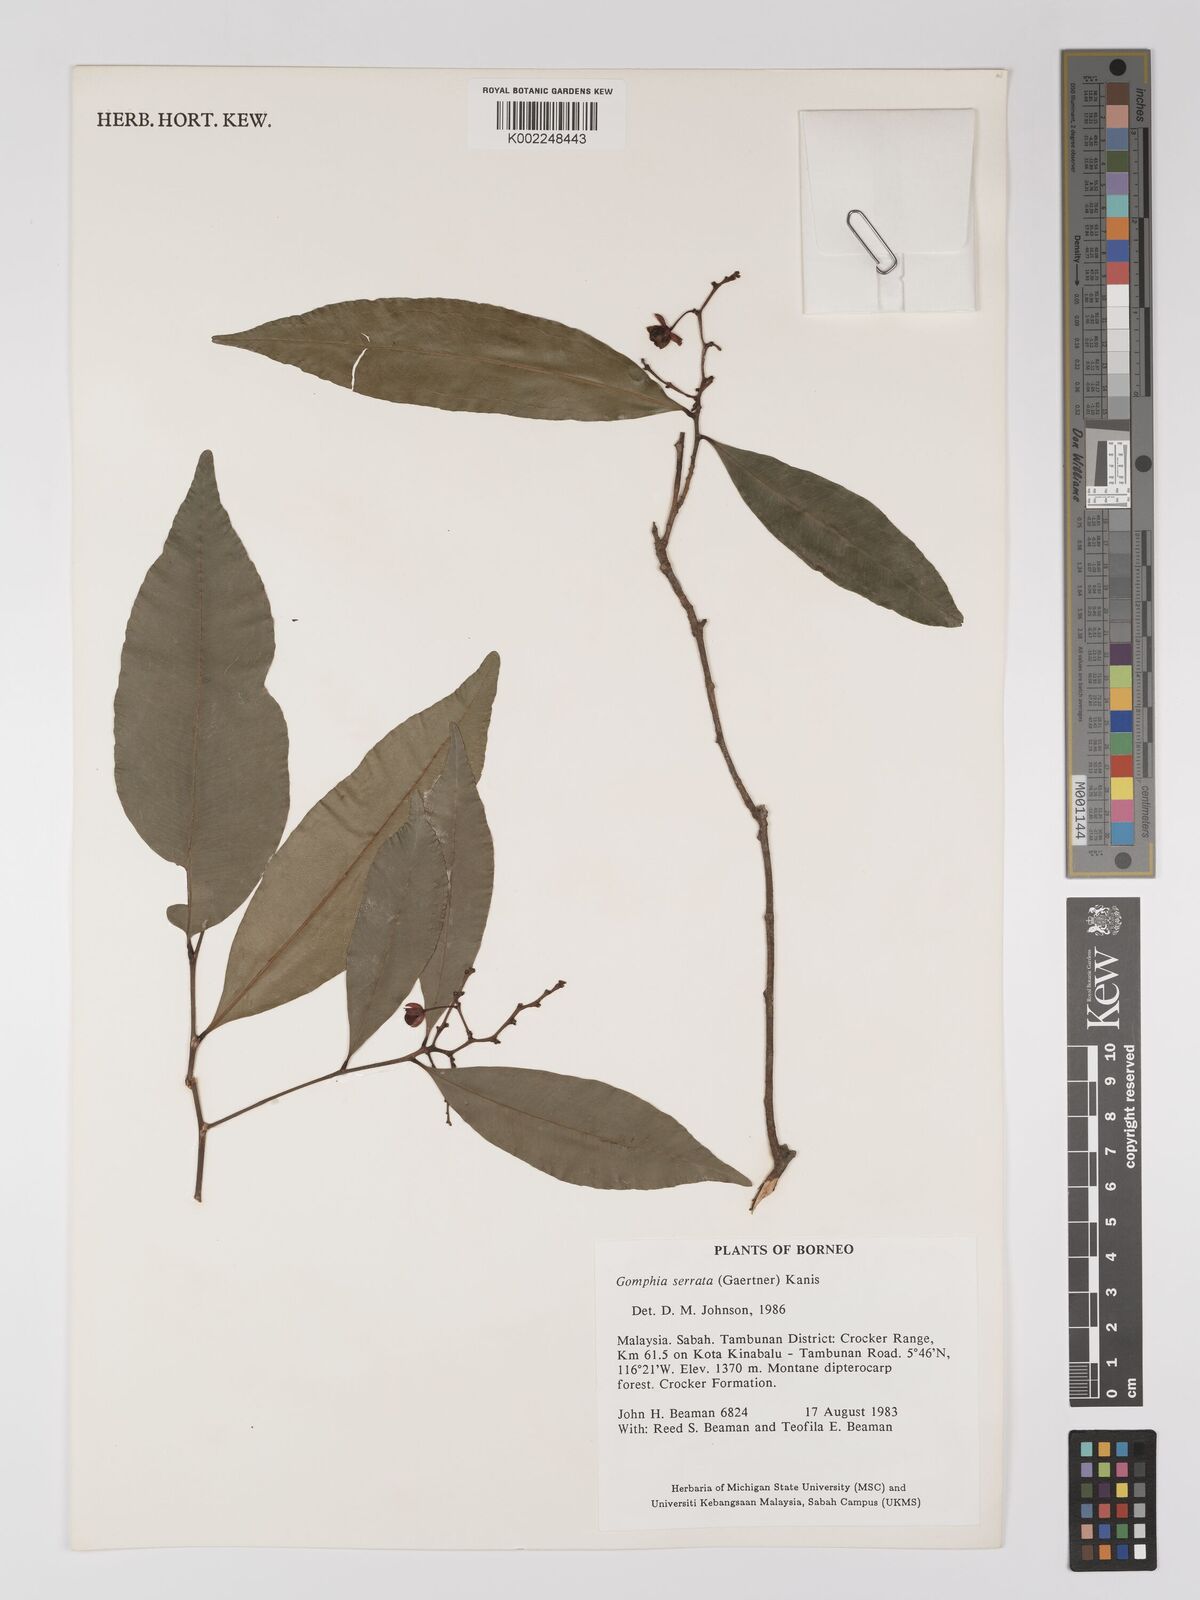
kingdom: Plantae
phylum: Tracheophyta
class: Magnoliopsida
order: Malpighiales
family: Ochnaceae
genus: Gomphia
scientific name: Gomphia serrata
